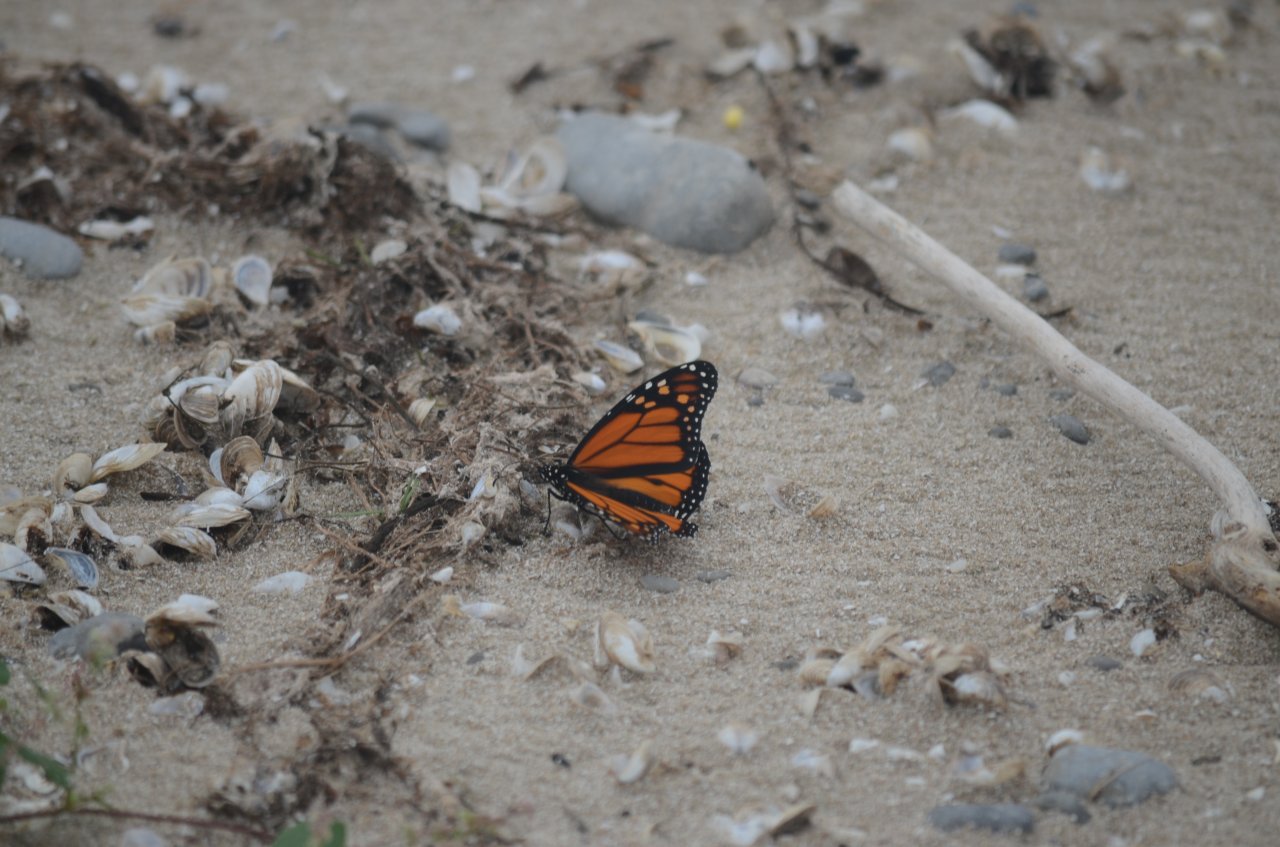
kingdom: Animalia
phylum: Arthropoda
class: Insecta
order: Lepidoptera
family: Nymphalidae
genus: Danaus
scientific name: Danaus plexippus
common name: Monarch
